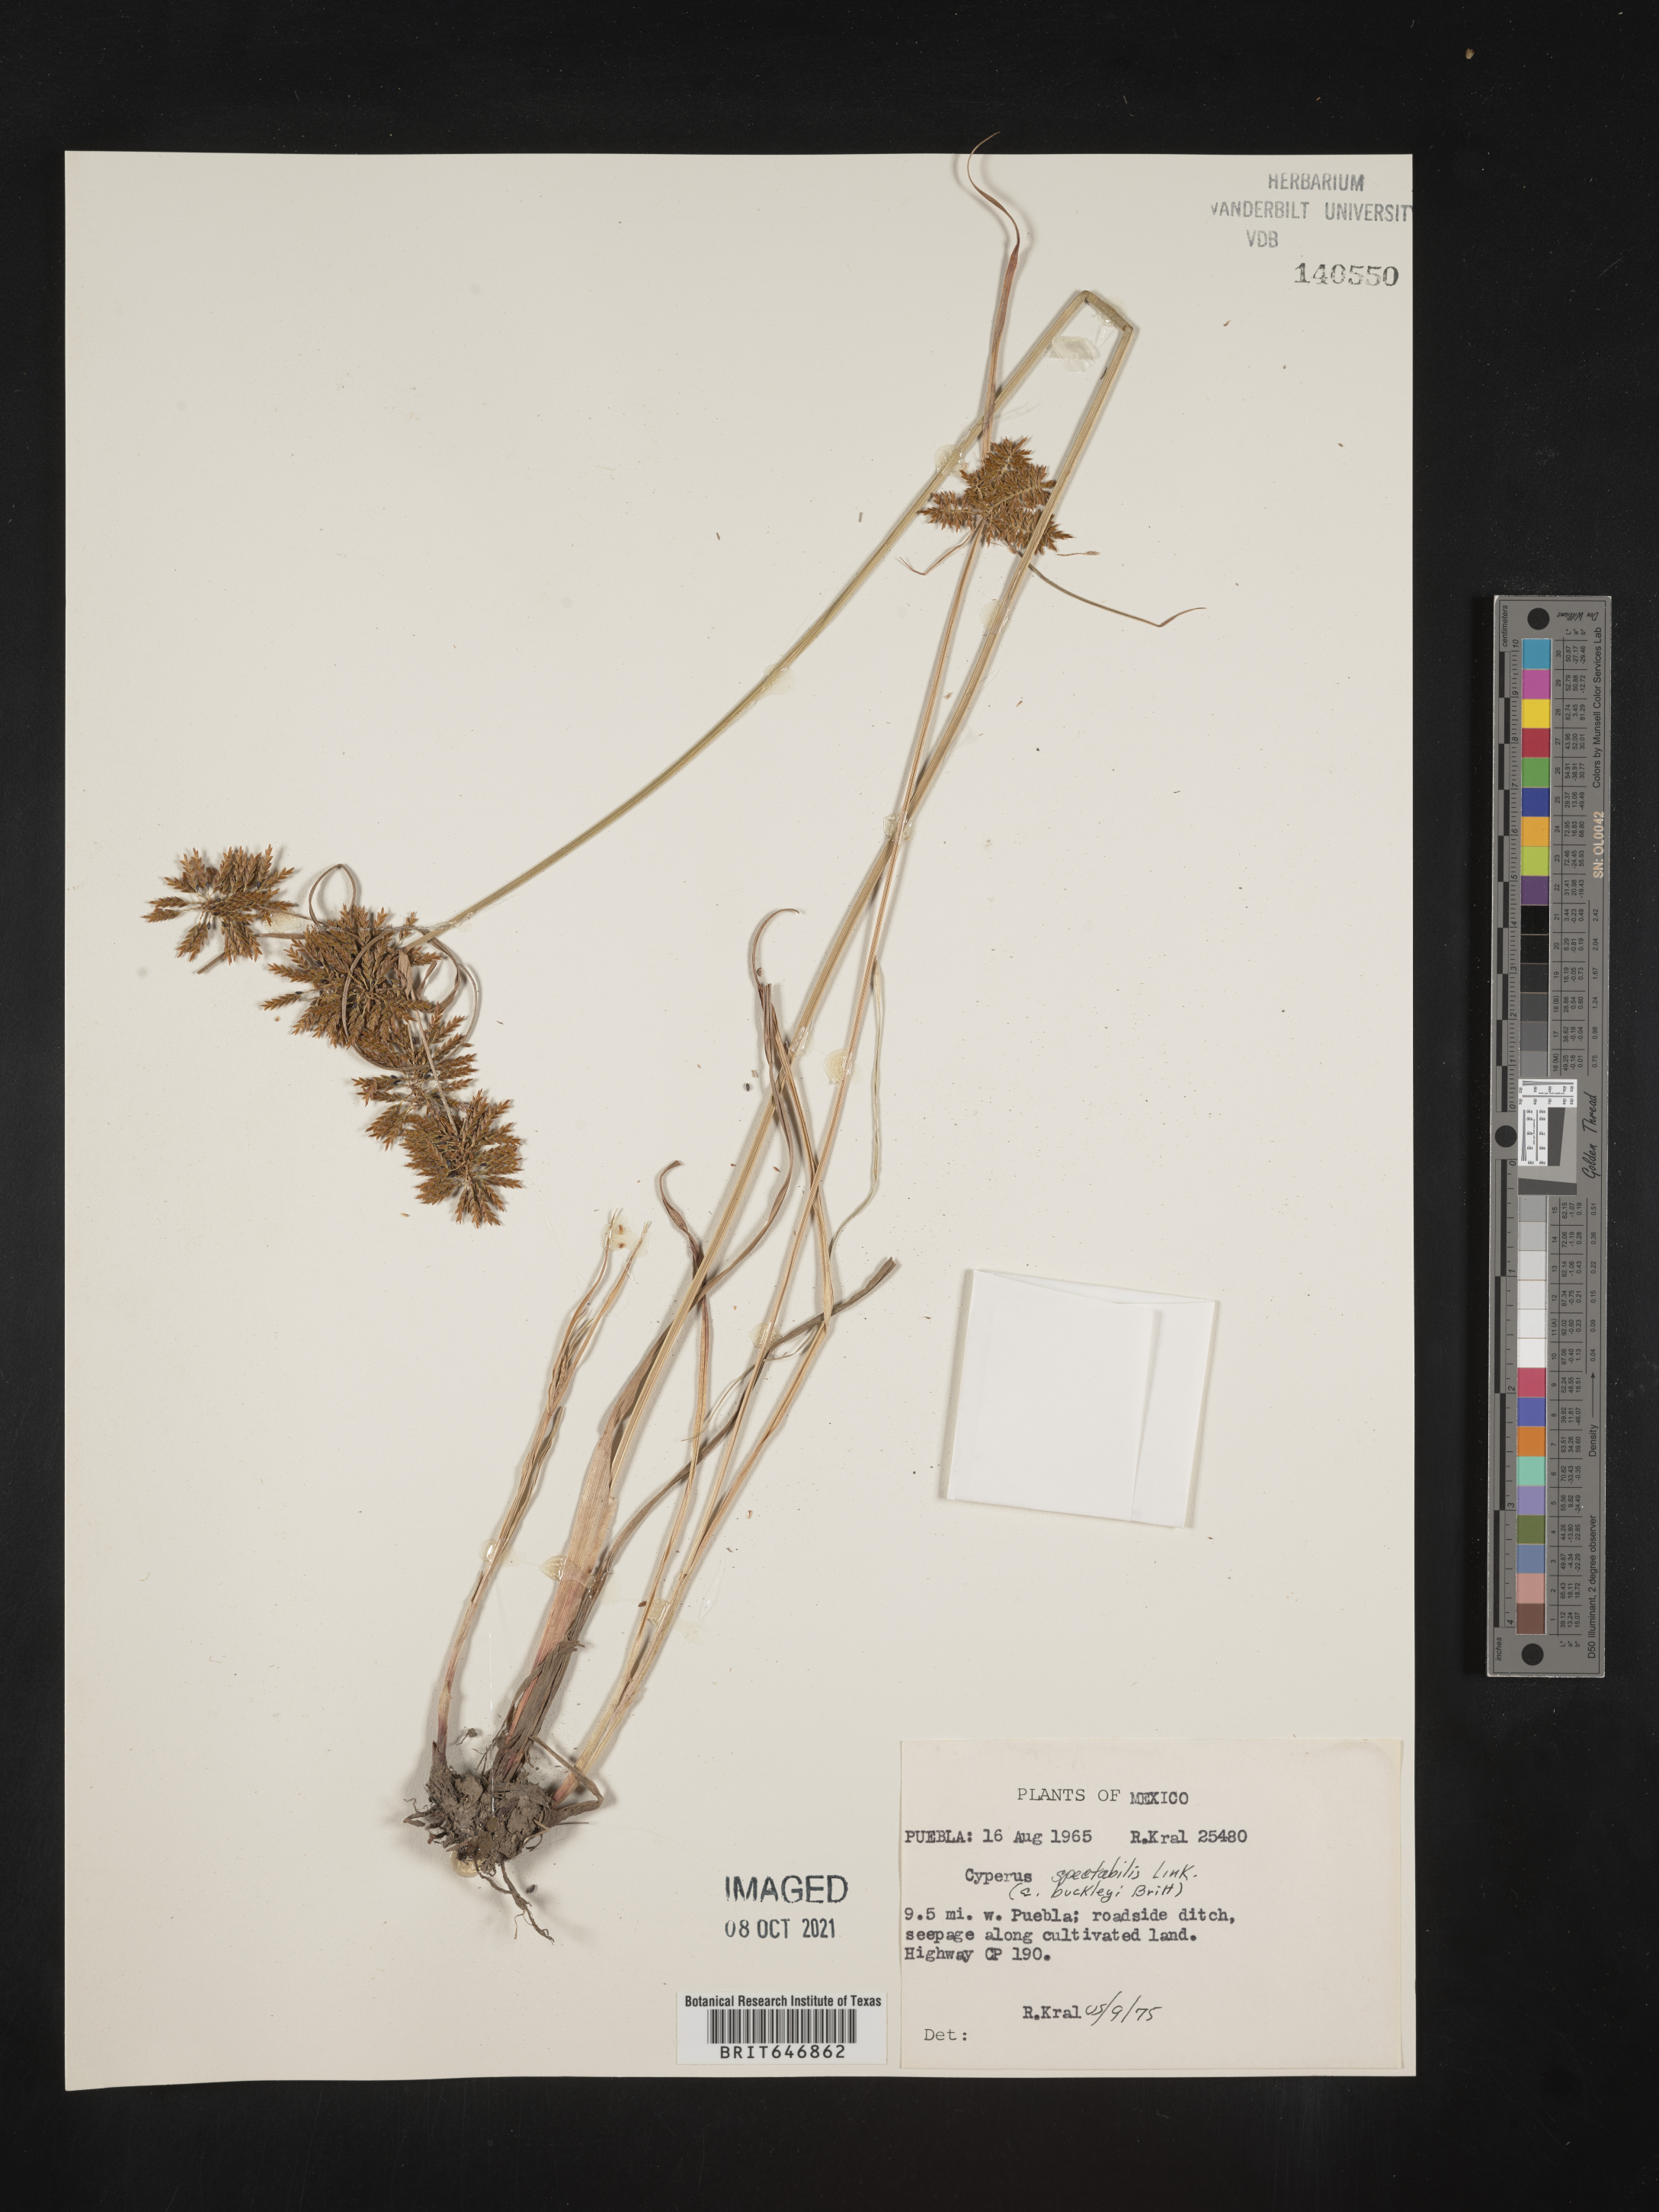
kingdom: Plantae
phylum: Tracheophyta
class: Liliopsida
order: Poales
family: Cyperaceae
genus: Cyperus
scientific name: Cyperus
